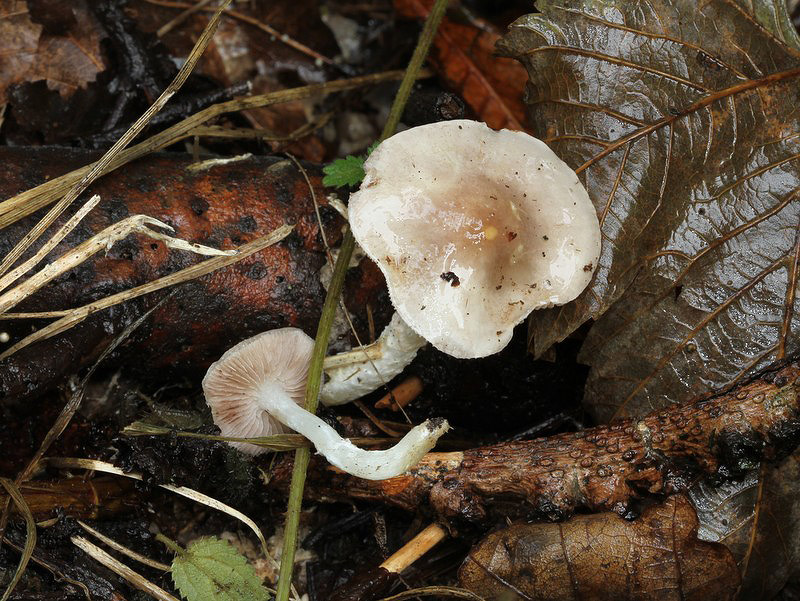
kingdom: Fungi
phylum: Basidiomycota
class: Agaricomycetes
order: Agaricales
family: Strophariaceae
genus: Stropharia
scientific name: Stropharia inuncta
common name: lillabrun bredblad
